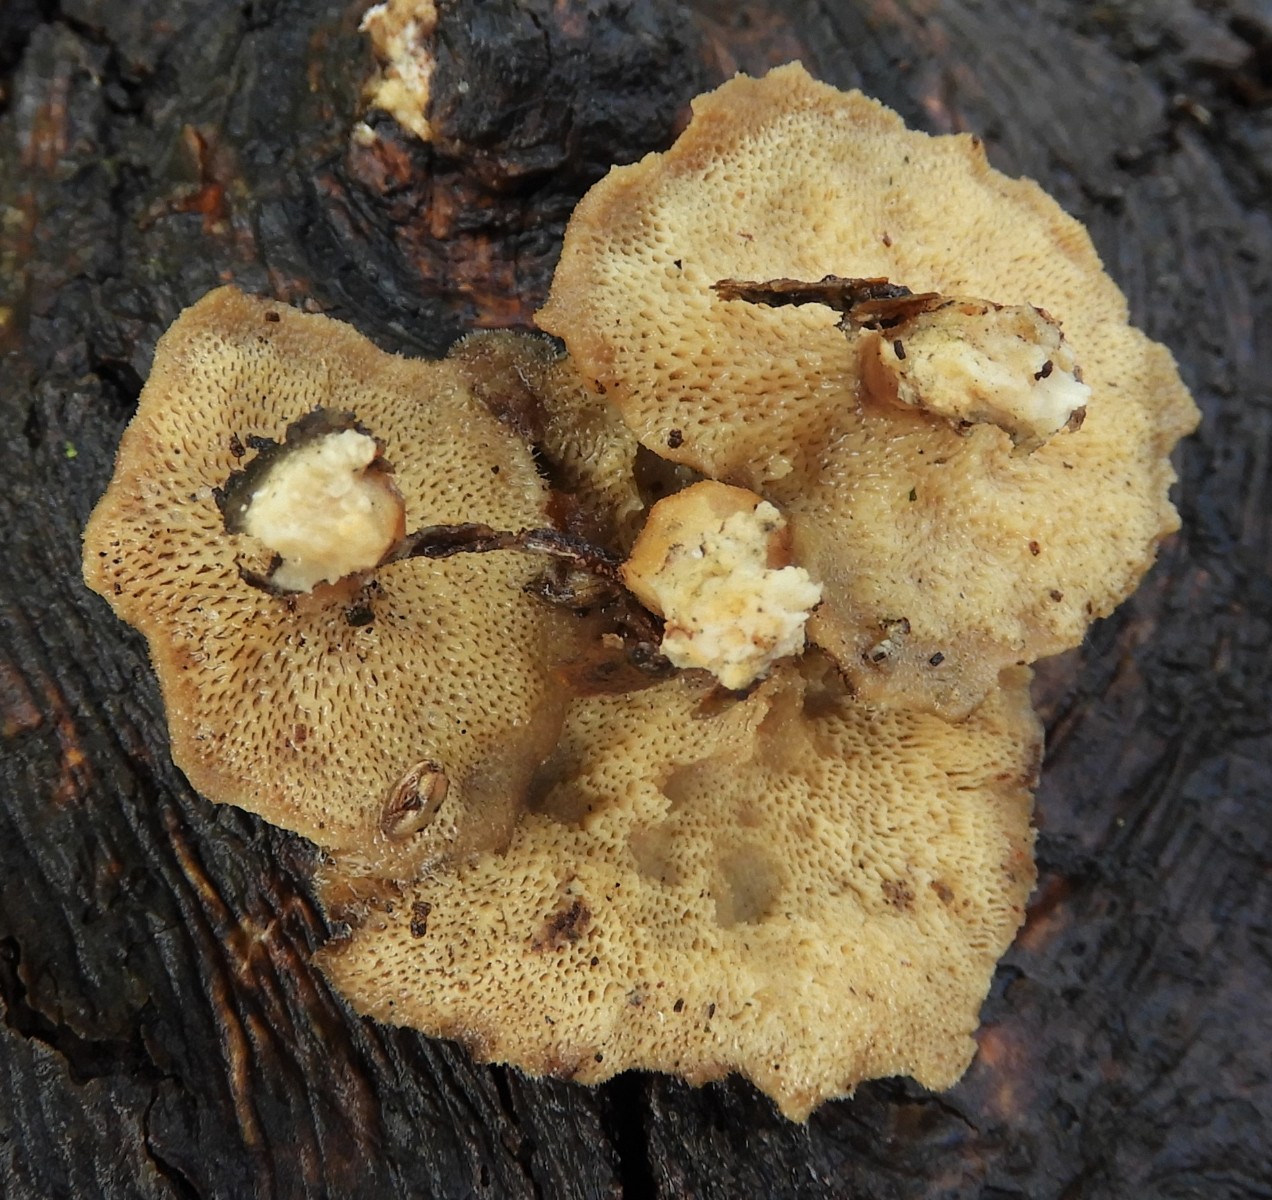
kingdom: Fungi
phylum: Basidiomycota
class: Agaricomycetes
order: Polyporales
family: Polyporaceae
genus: Lentinus
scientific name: Lentinus brumalis
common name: vinter-stilkporesvamp
